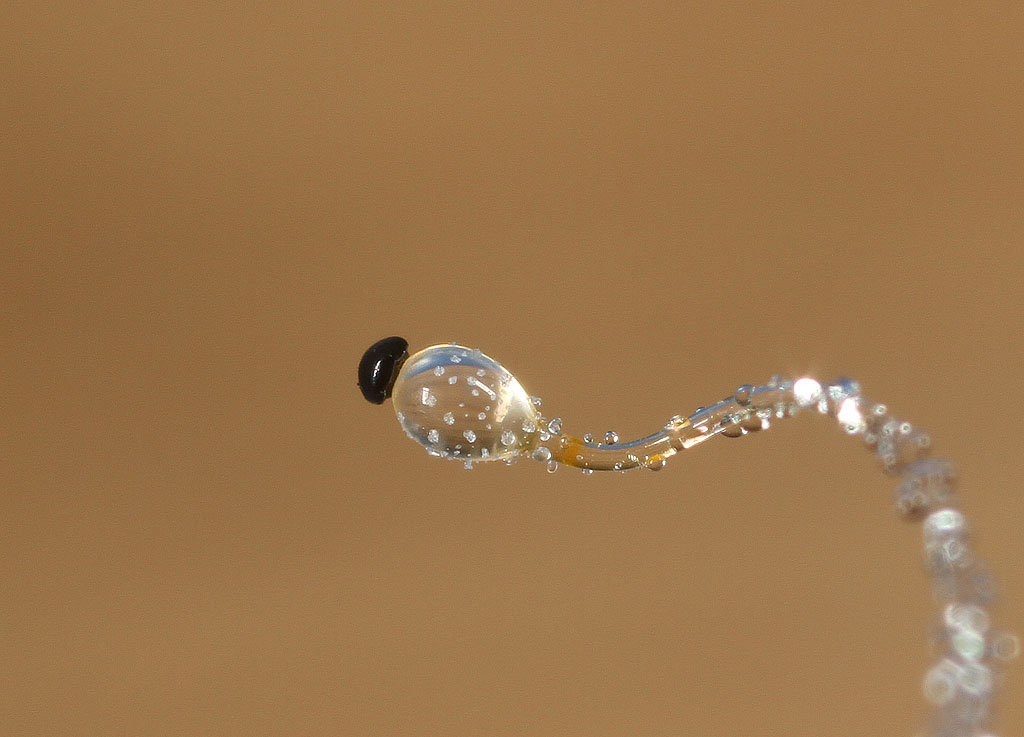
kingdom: Fungi
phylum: Mucoromycota
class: Mucoromycetes
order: Mucorales
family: Pilobolaceae
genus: Pilobolus
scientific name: Pilobolus crystallinus
